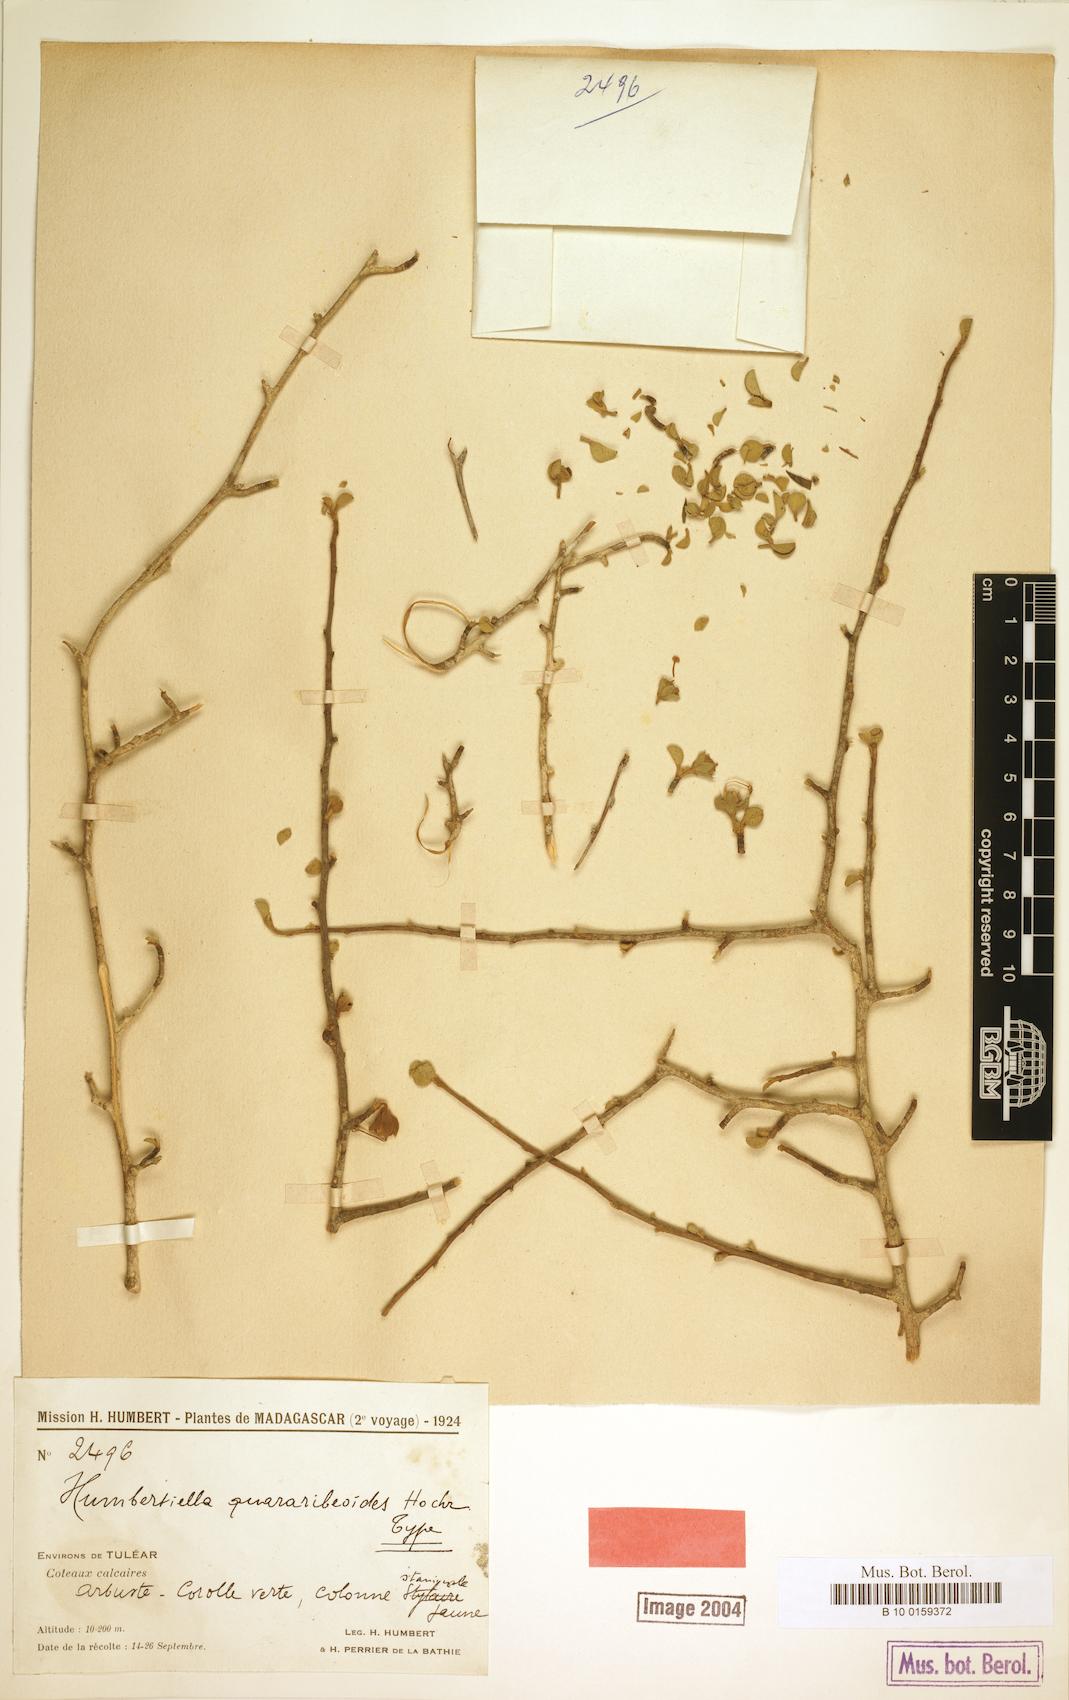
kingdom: Plantae
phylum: Tracheophyta
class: Magnoliopsida
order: Malvales
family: Malvaceae
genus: Humbertiella
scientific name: Humbertiella quararibeoides
